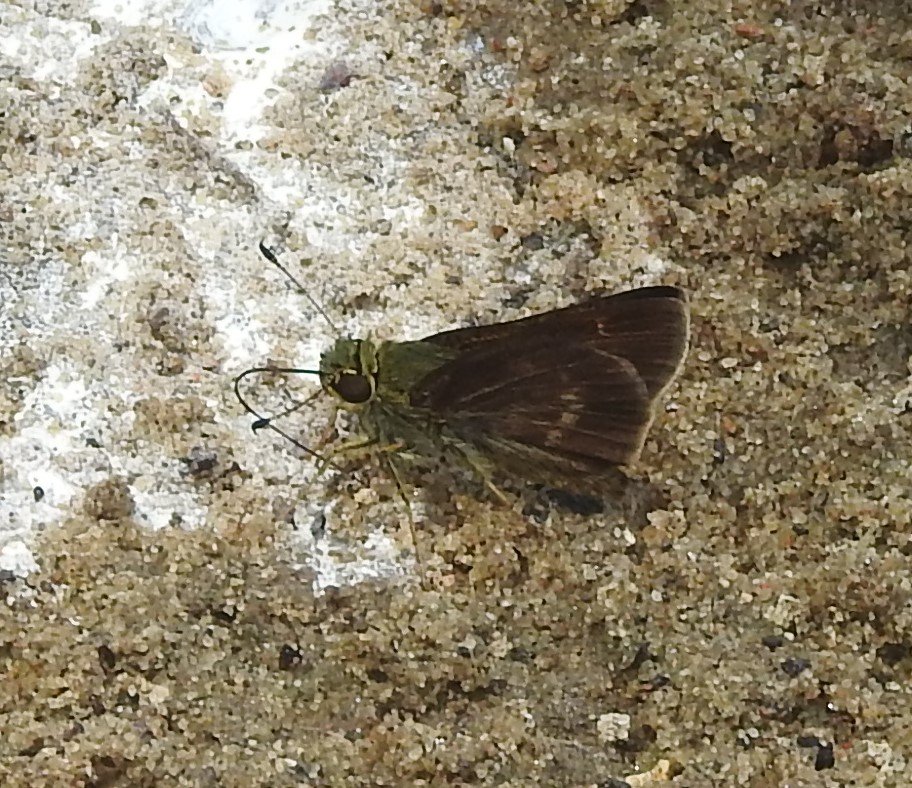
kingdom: Animalia
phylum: Arthropoda
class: Insecta
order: Lepidoptera
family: Hesperiidae
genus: Euphyes
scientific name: Euphyes vestris
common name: Dun Skipper
